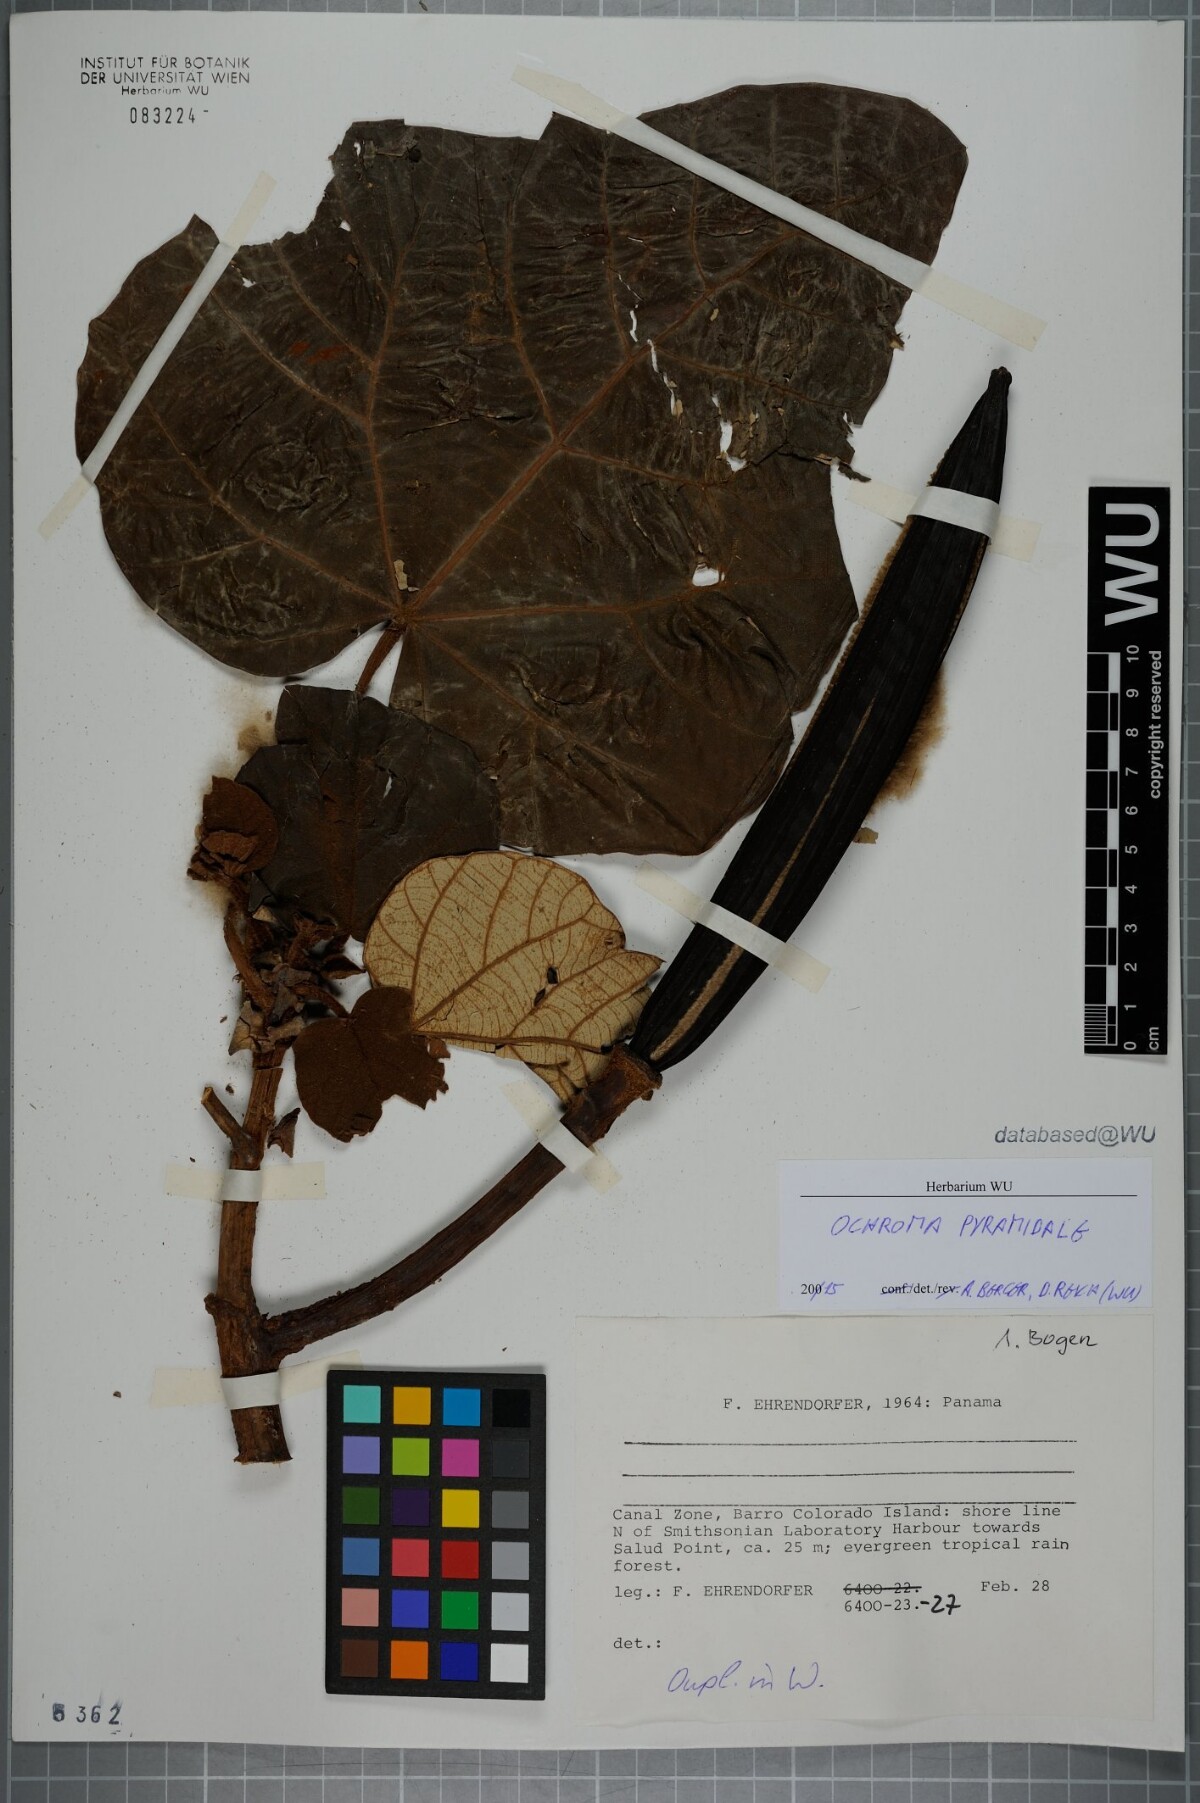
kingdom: Plantae
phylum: Tracheophyta
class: Magnoliopsida
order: Malvales
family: Malvaceae
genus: Ochroma
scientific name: Ochroma pyramidale
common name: Balsa
